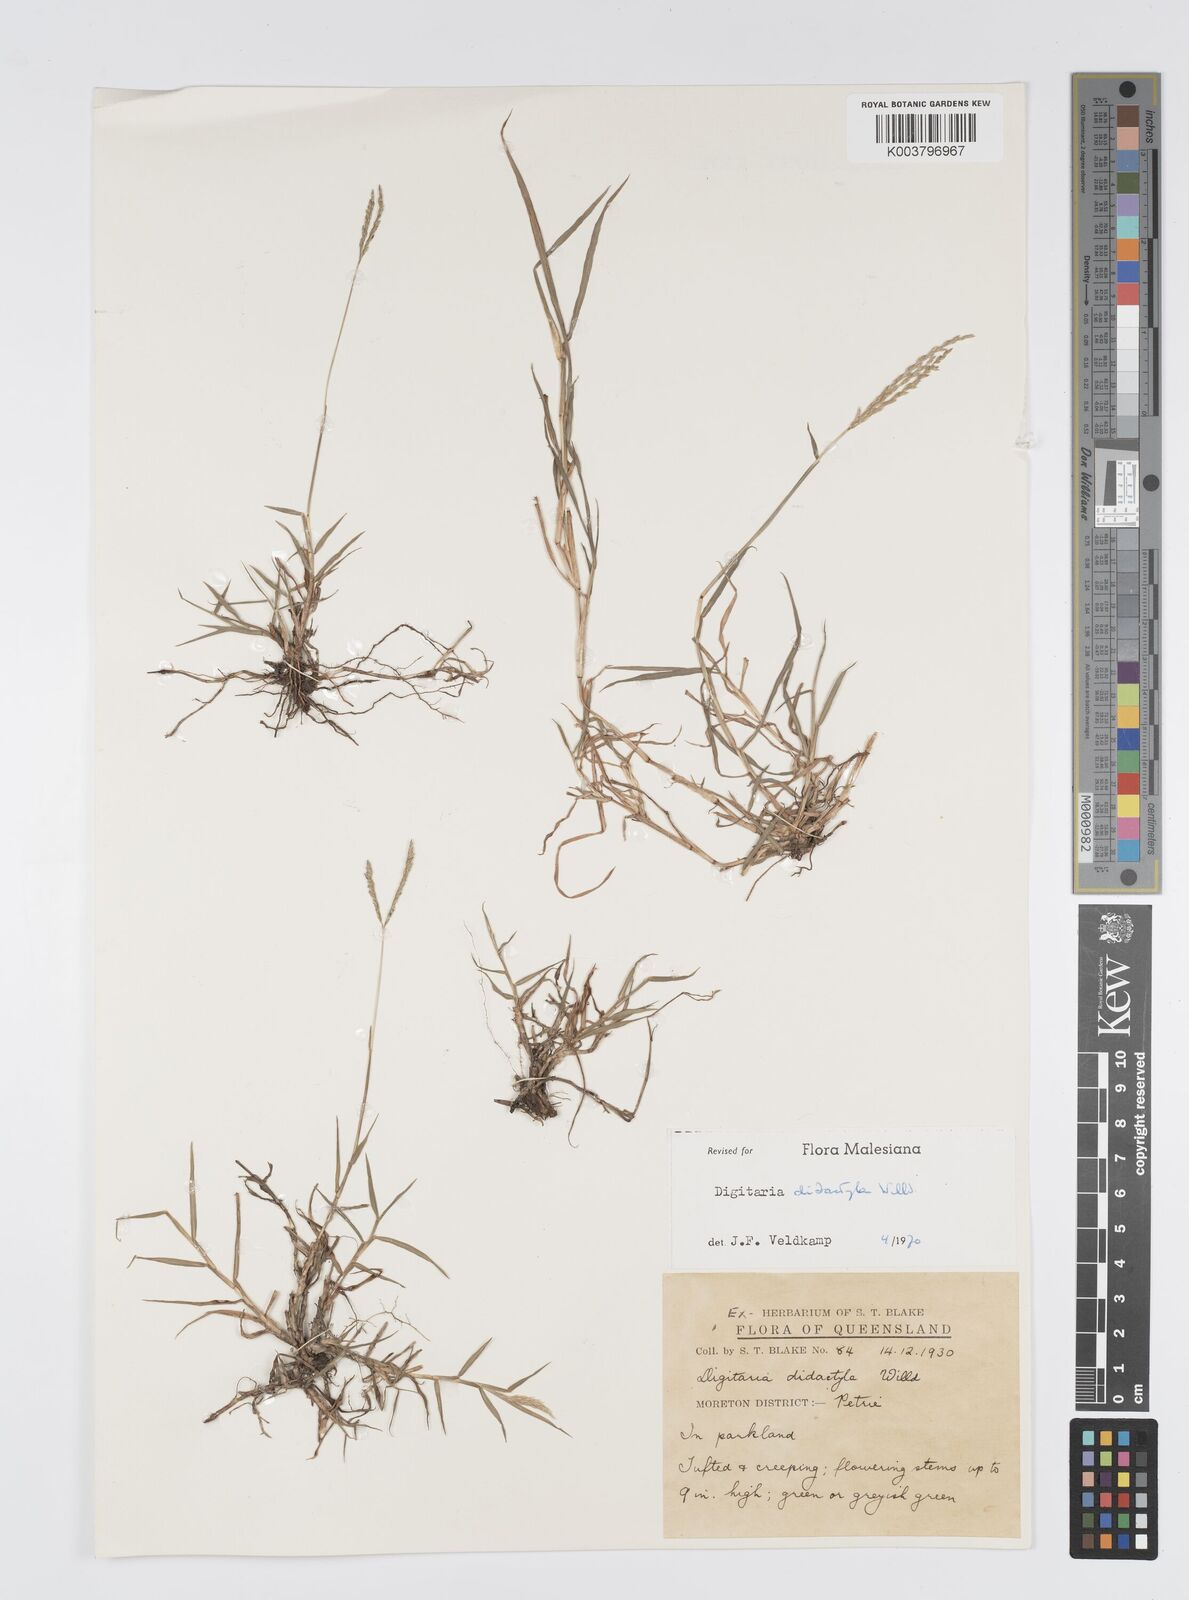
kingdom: Plantae
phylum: Tracheophyta
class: Liliopsida
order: Poales
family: Poaceae
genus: Digitaria
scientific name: Digitaria didactyla
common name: Blue couch
